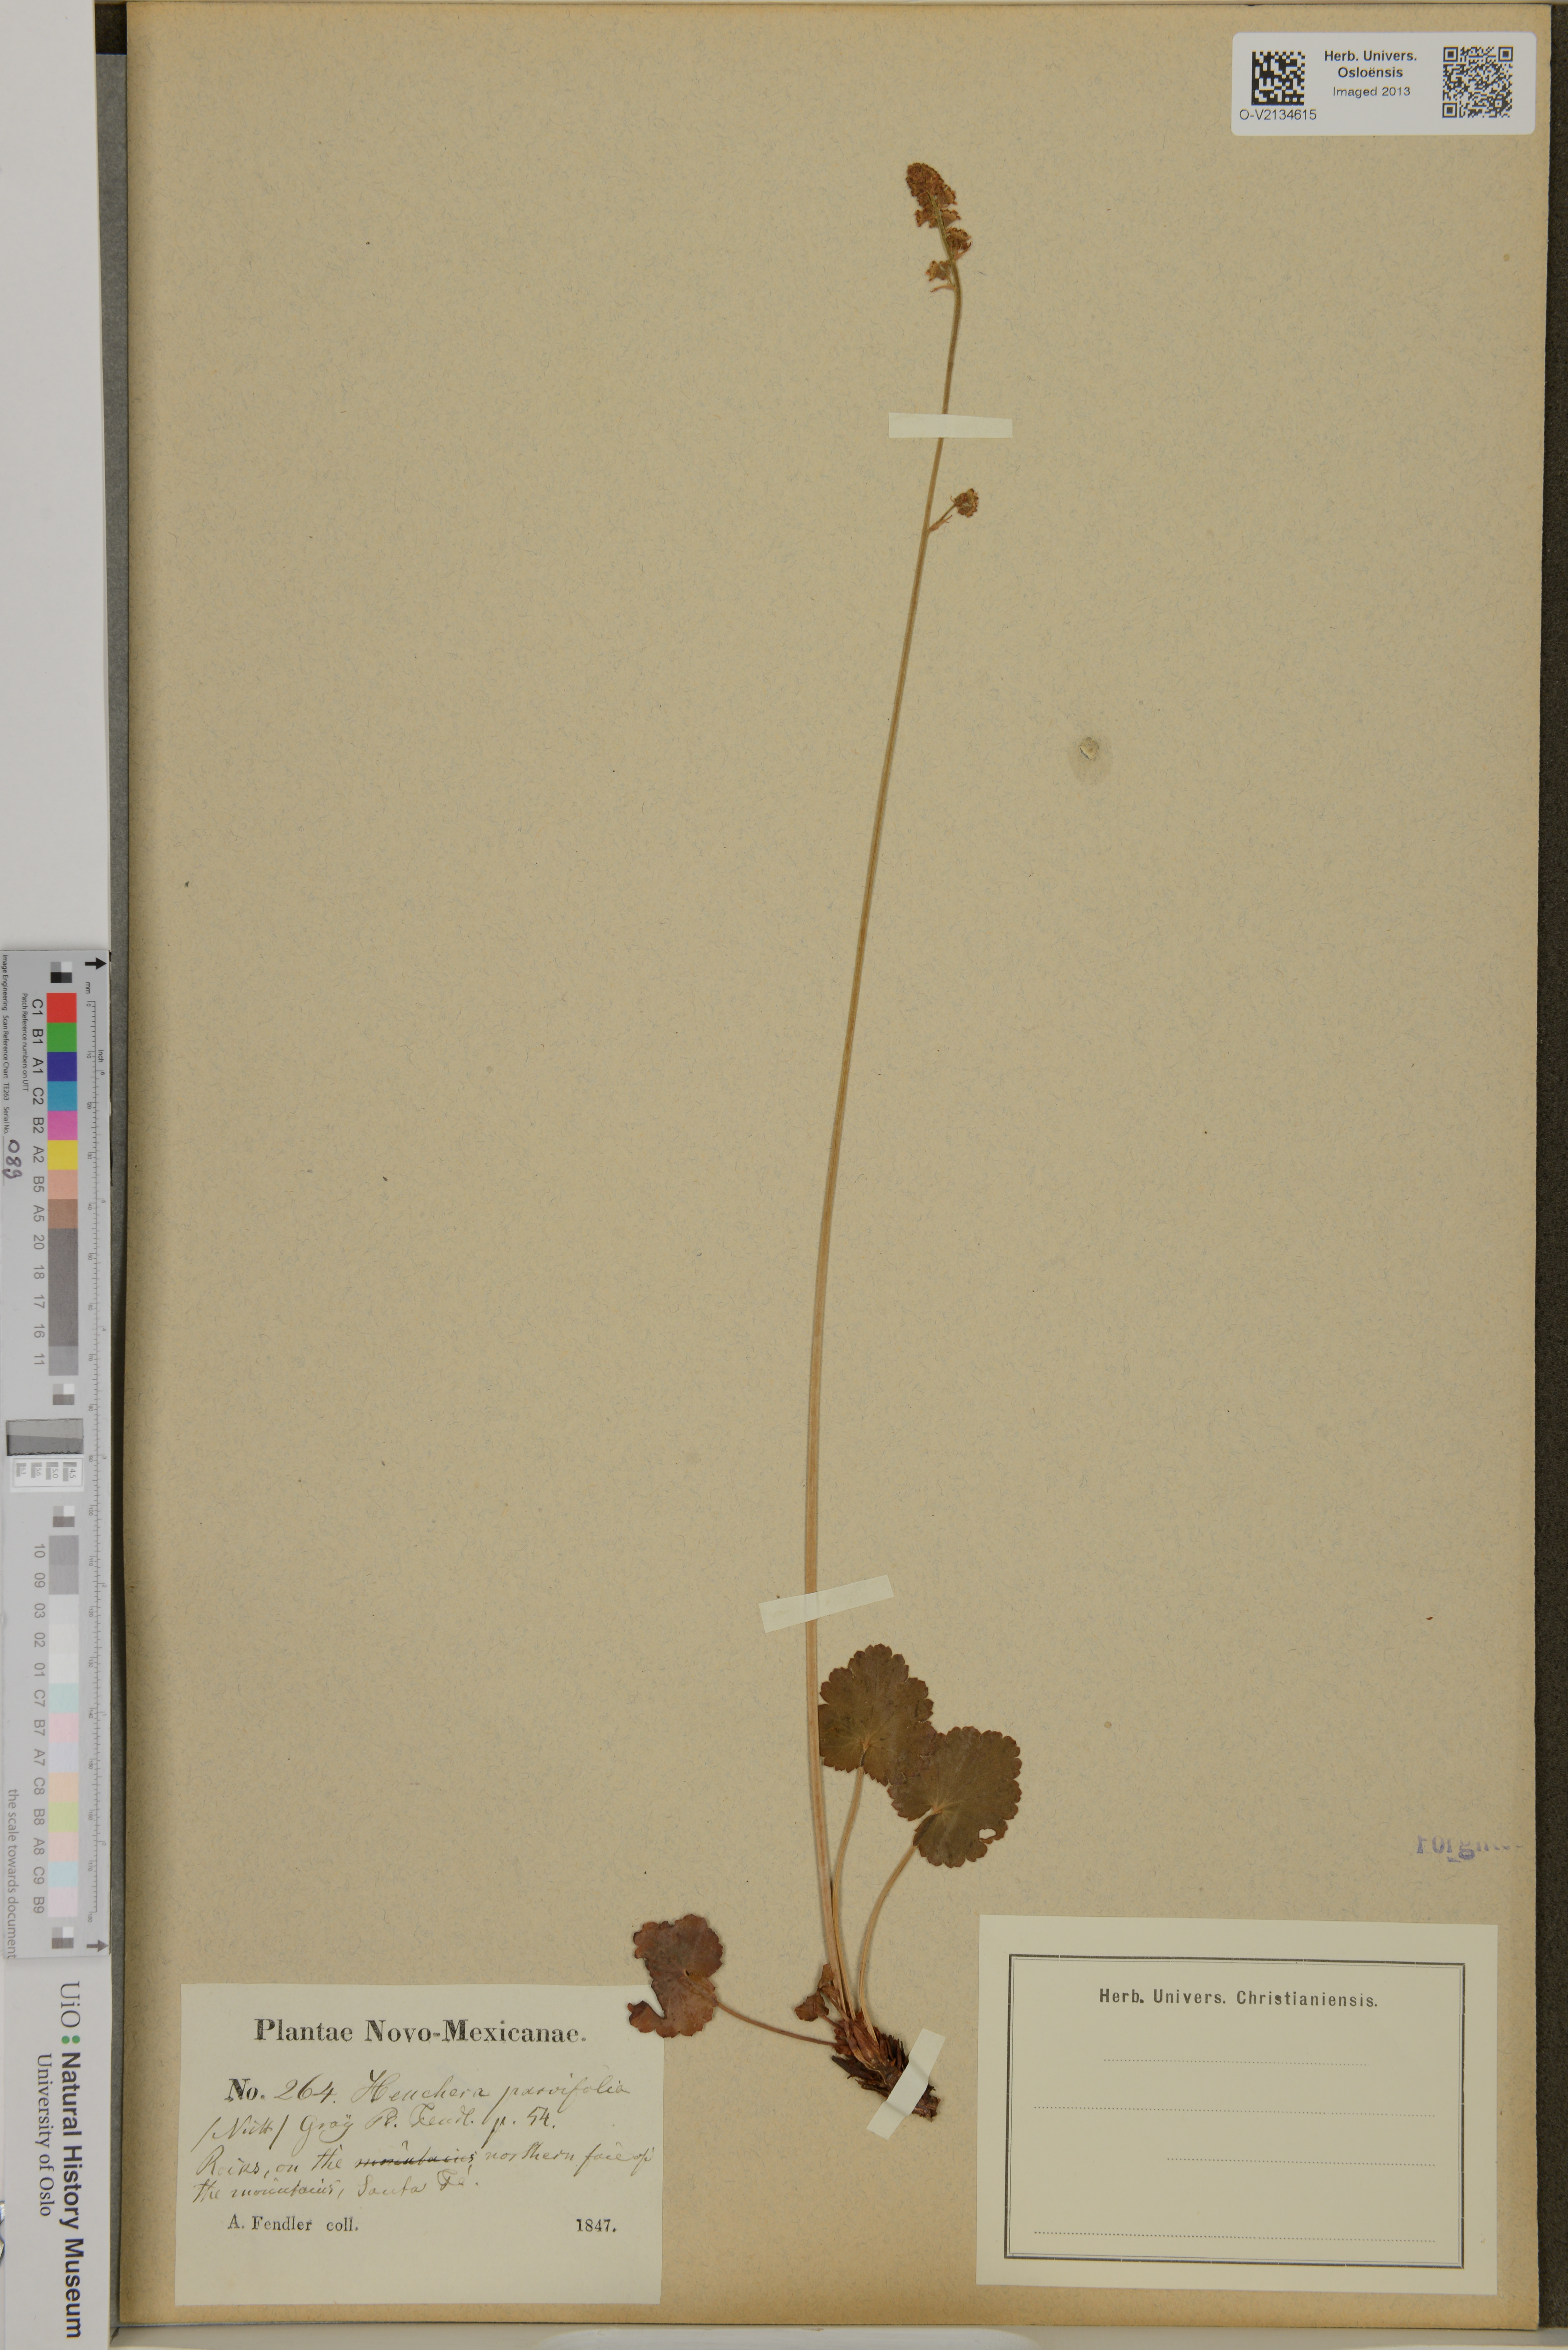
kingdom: Plantae
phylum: Tracheophyta
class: Magnoliopsida
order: Saxifragales
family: Saxifragaceae
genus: Heuchera
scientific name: Heuchera parvifolia
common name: Common alumroot
